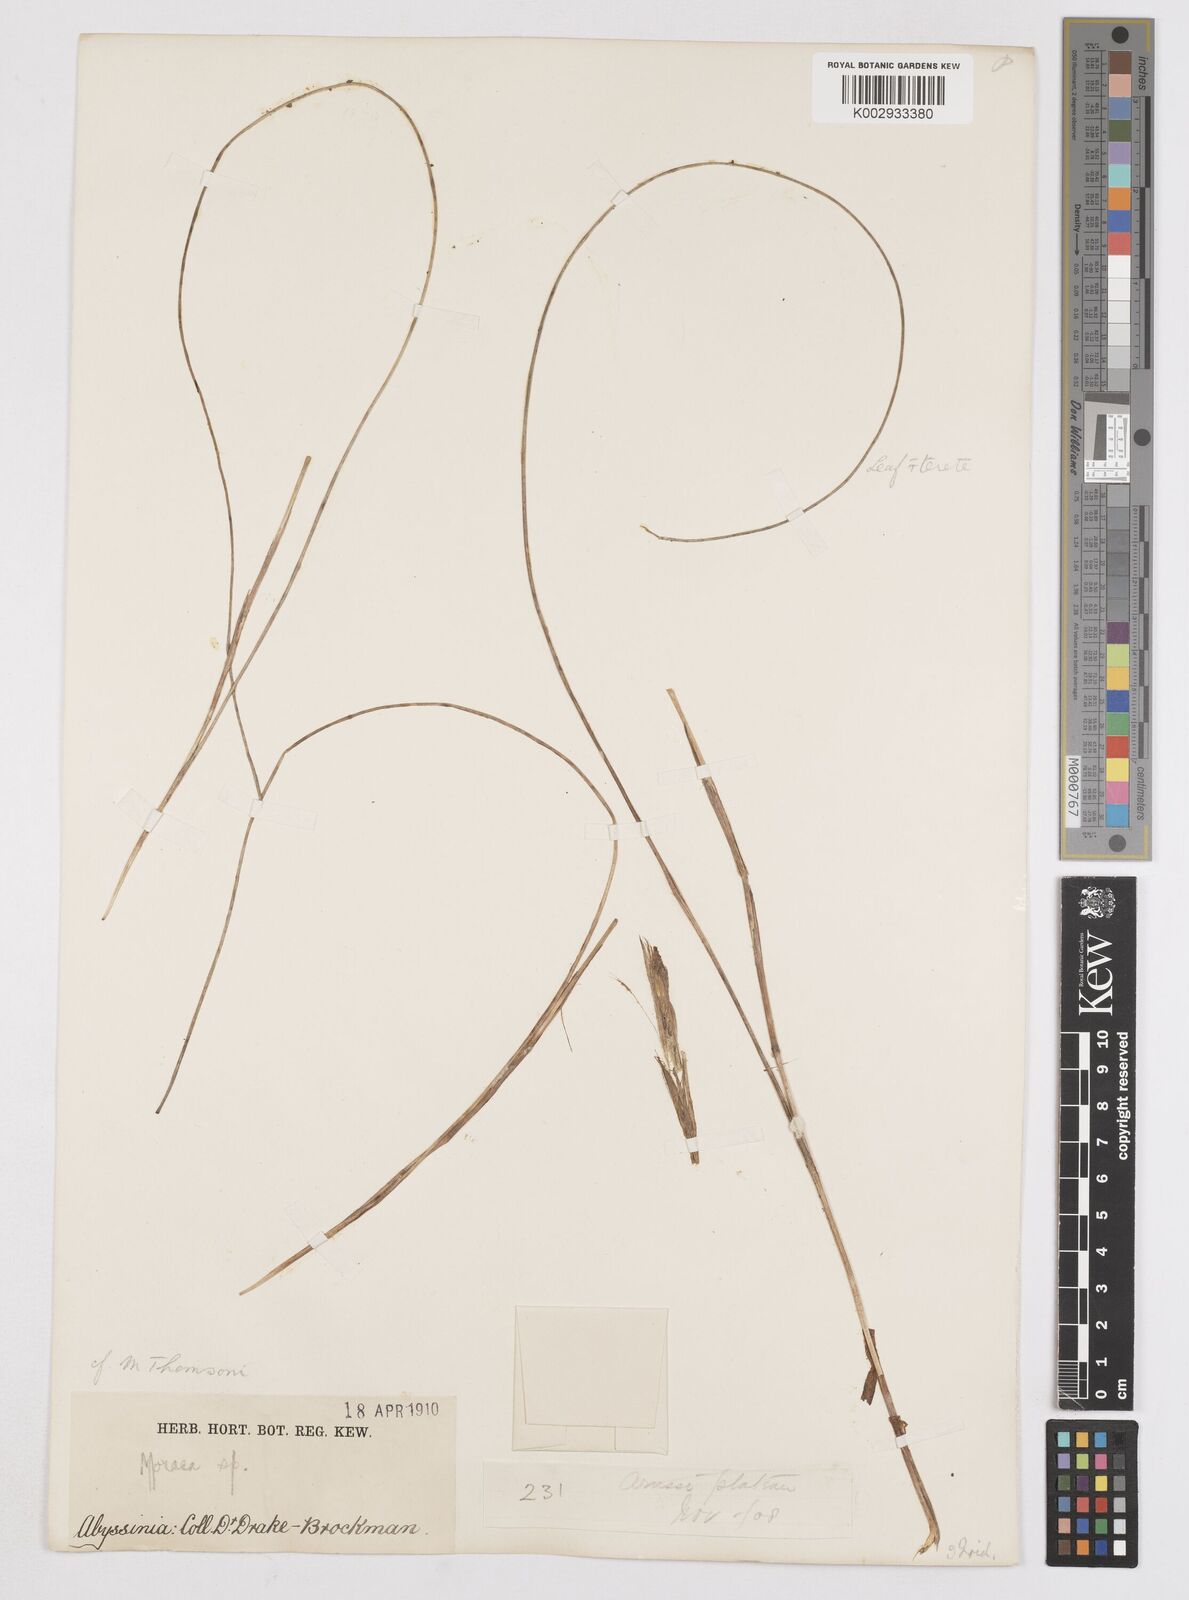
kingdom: Plantae
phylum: Tracheophyta
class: Liliopsida
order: Asparagales
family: Iridaceae
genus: Moraea
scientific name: Moraea thomsonii
